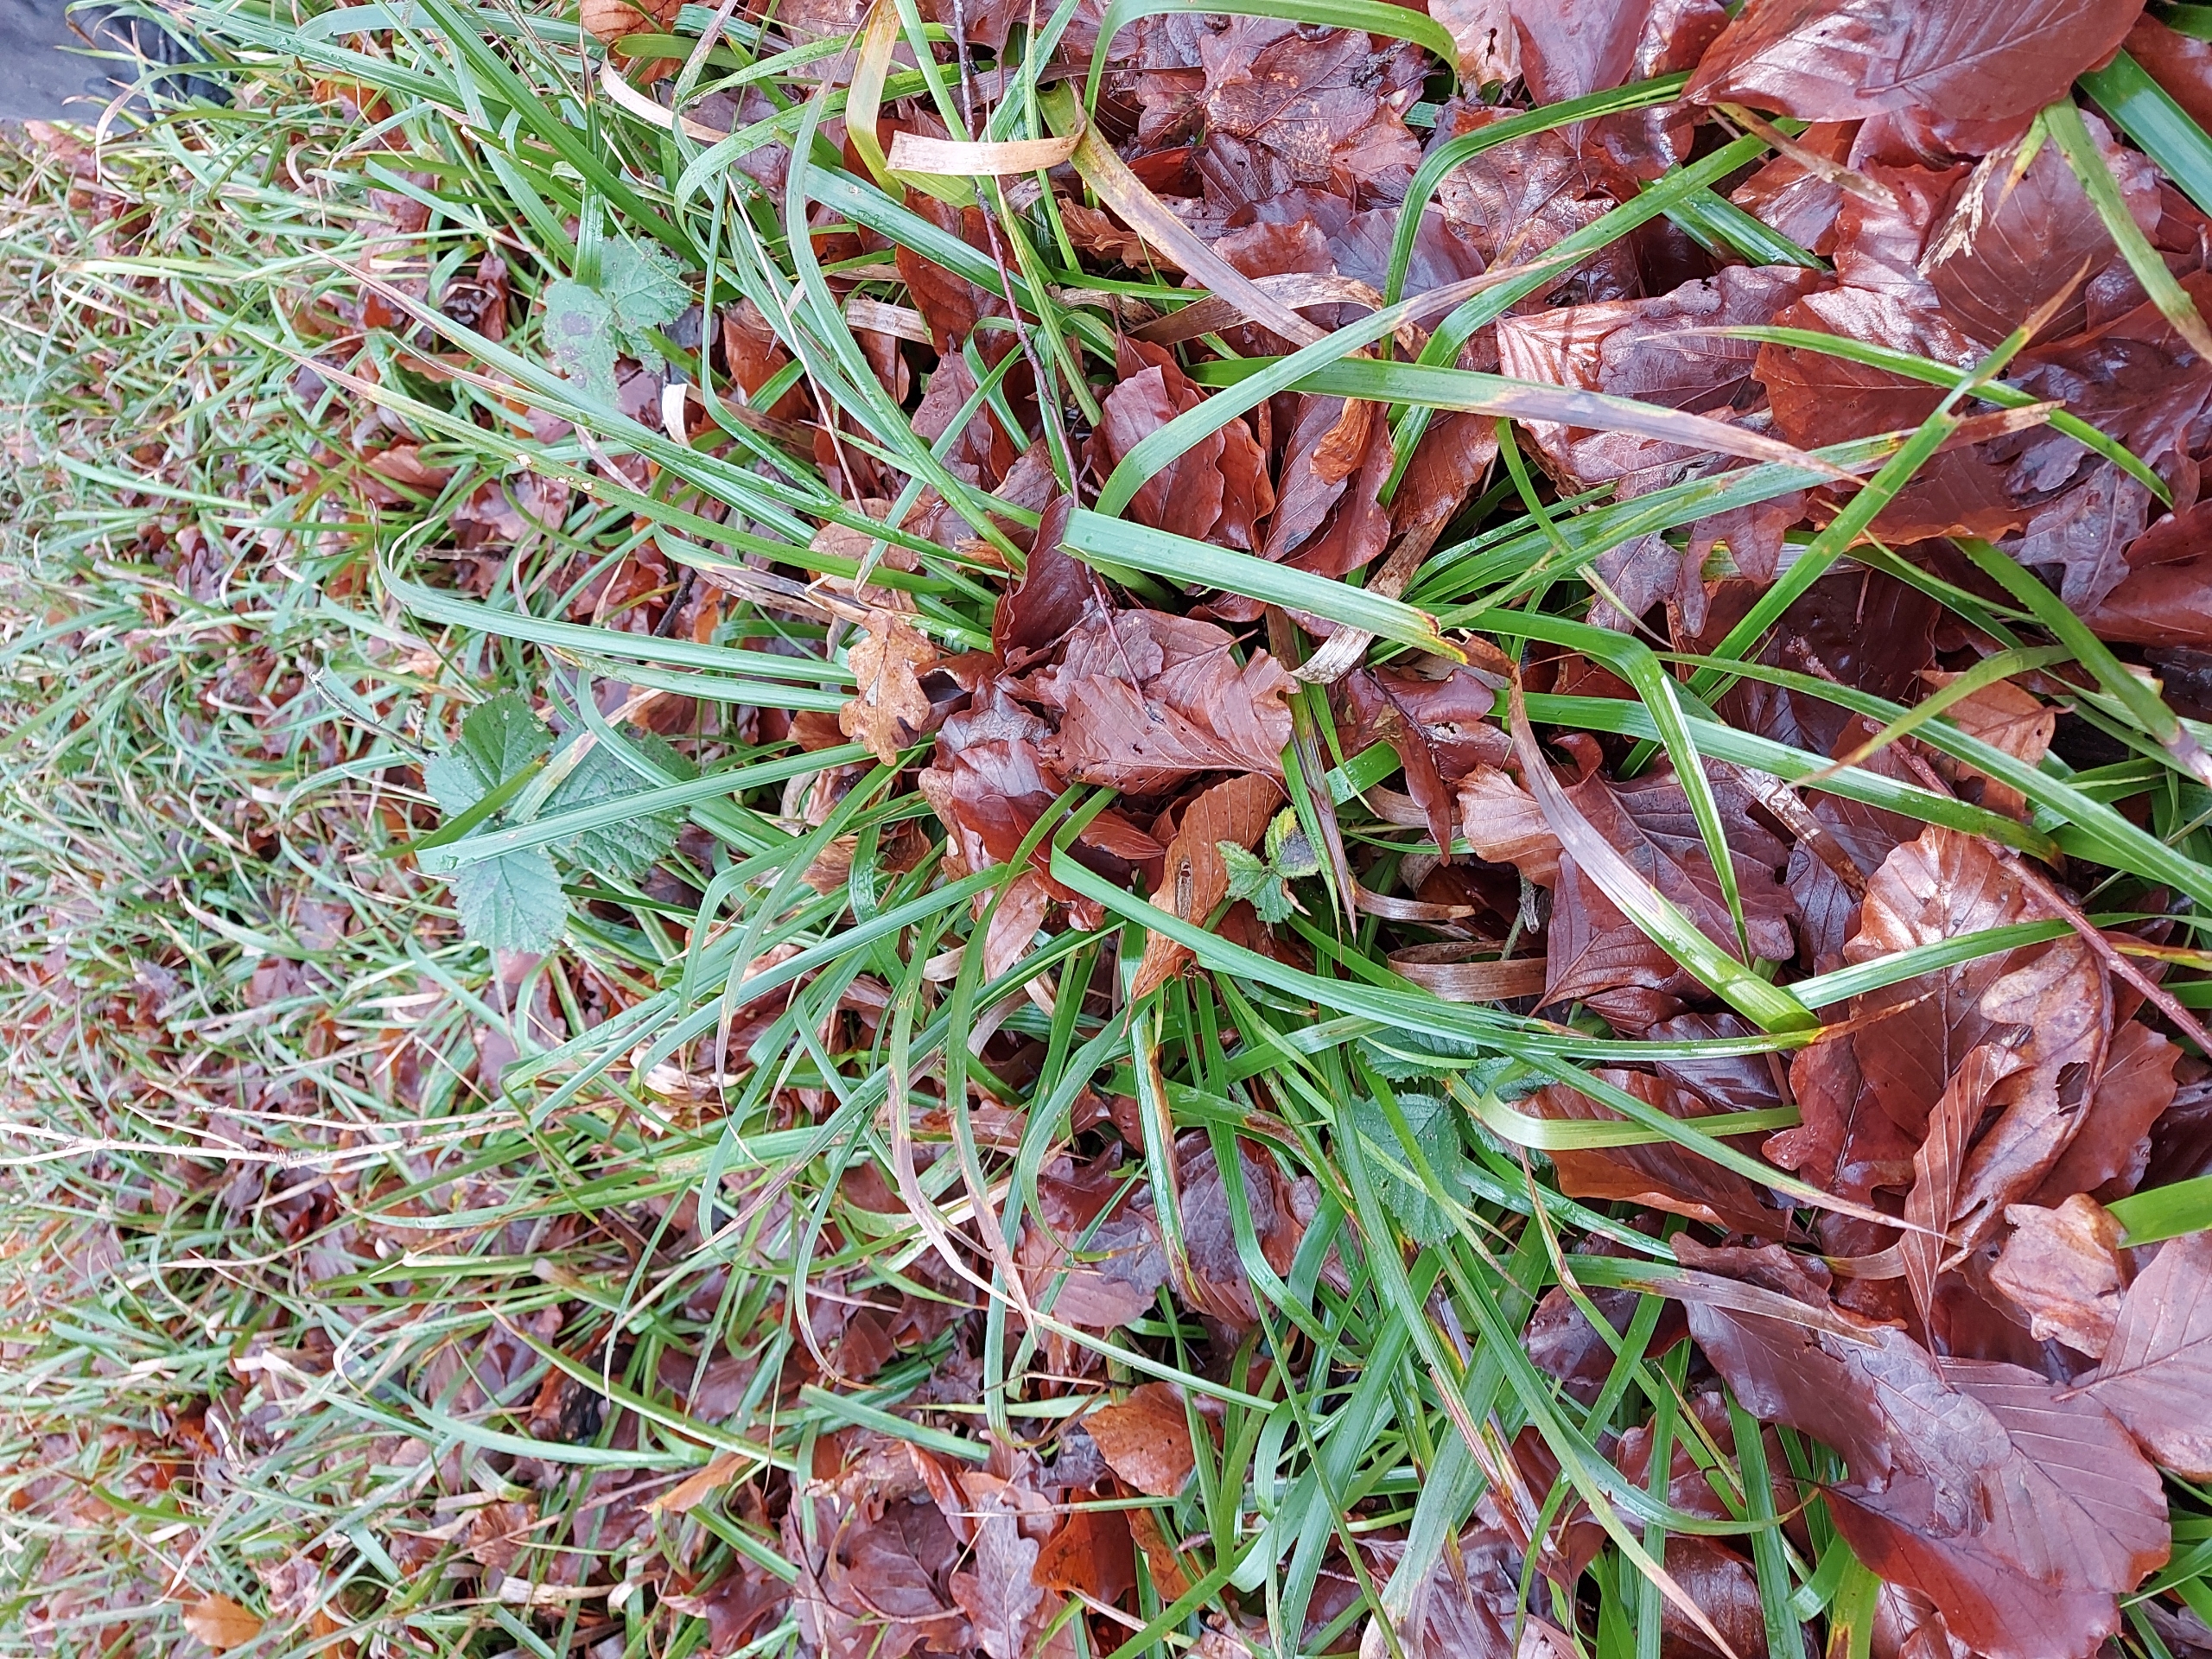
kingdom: Plantae
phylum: Tracheophyta
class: Liliopsida
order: Poales
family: Juncaceae
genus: Luzula
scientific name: Luzula sylvatica
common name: Stor frytle
